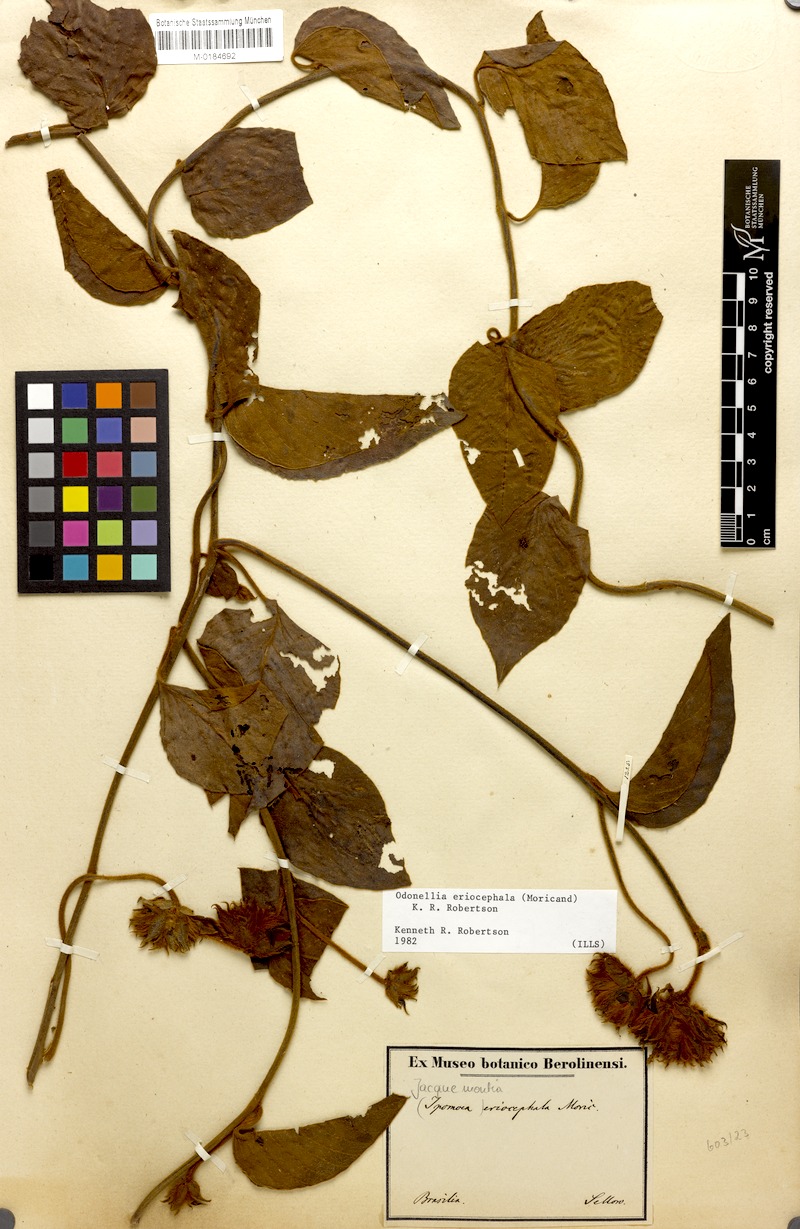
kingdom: Plantae
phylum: Tracheophyta
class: Magnoliopsida
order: Solanales
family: Convolvulaceae
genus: Odonellia
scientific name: Odonellia eriocephala
